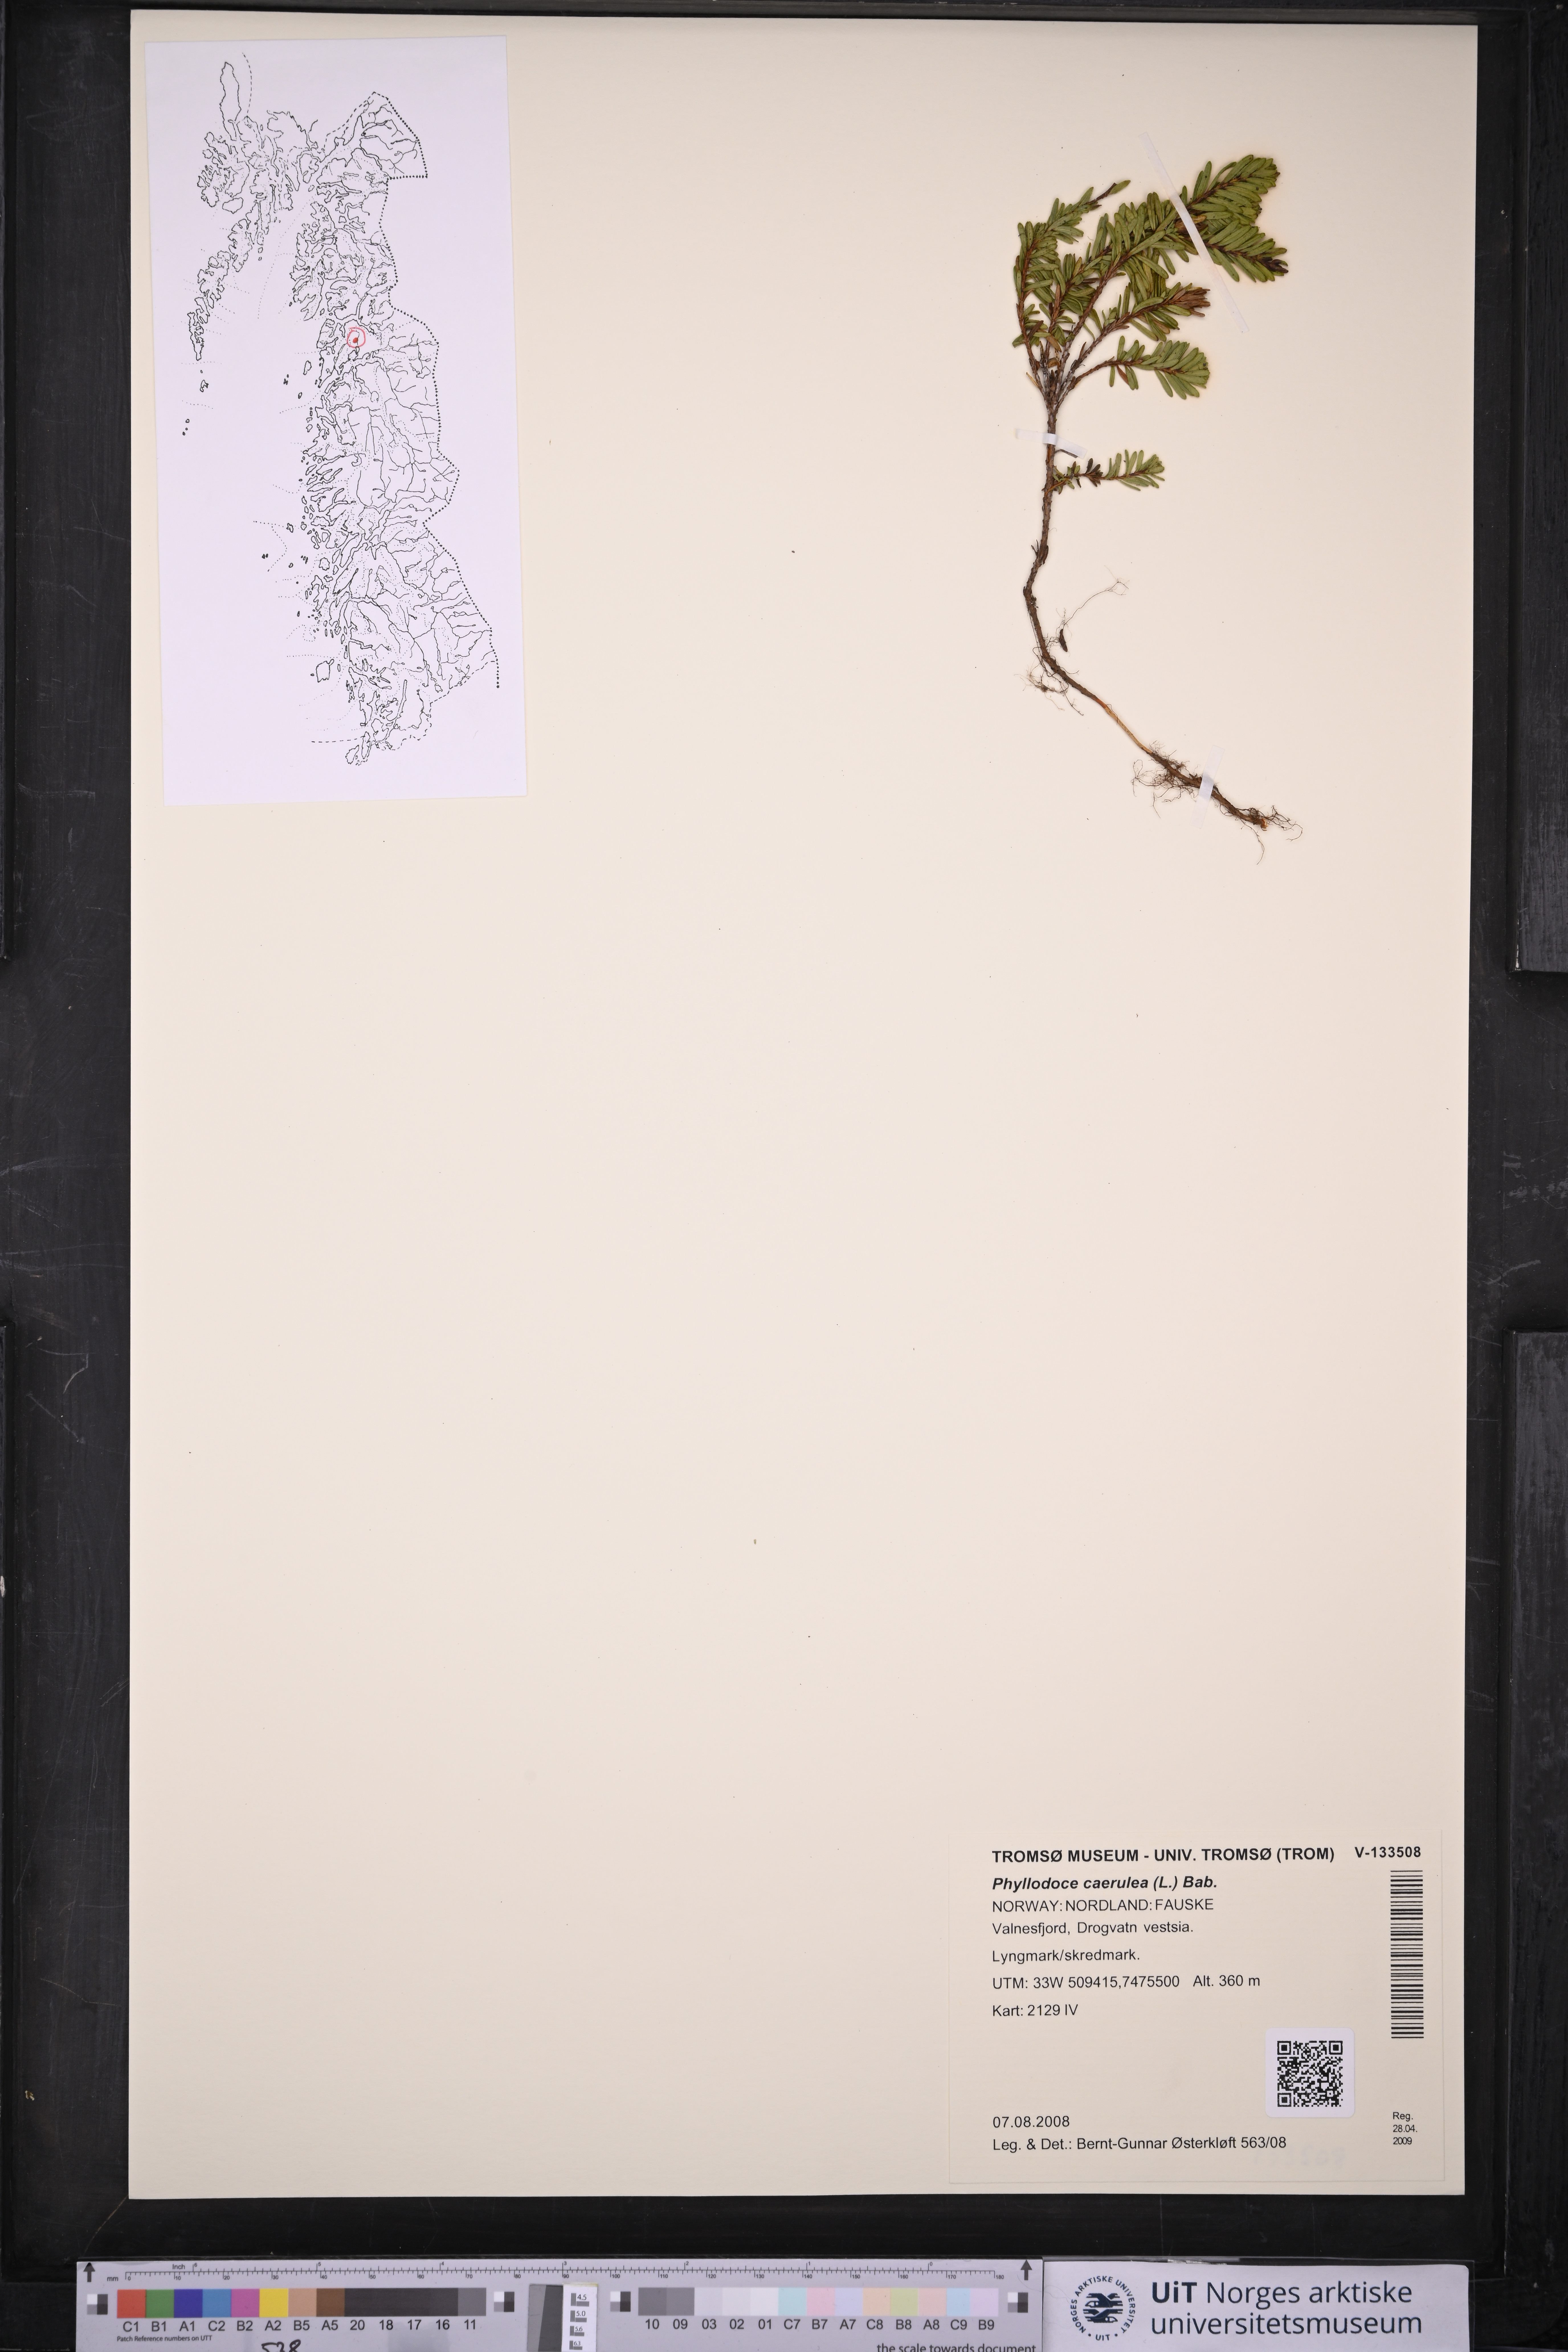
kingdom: Plantae
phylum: Tracheophyta
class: Magnoliopsida
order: Ericales
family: Ericaceae
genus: Phyllodoce
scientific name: Phyllodoce caerulea
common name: Blue heath
